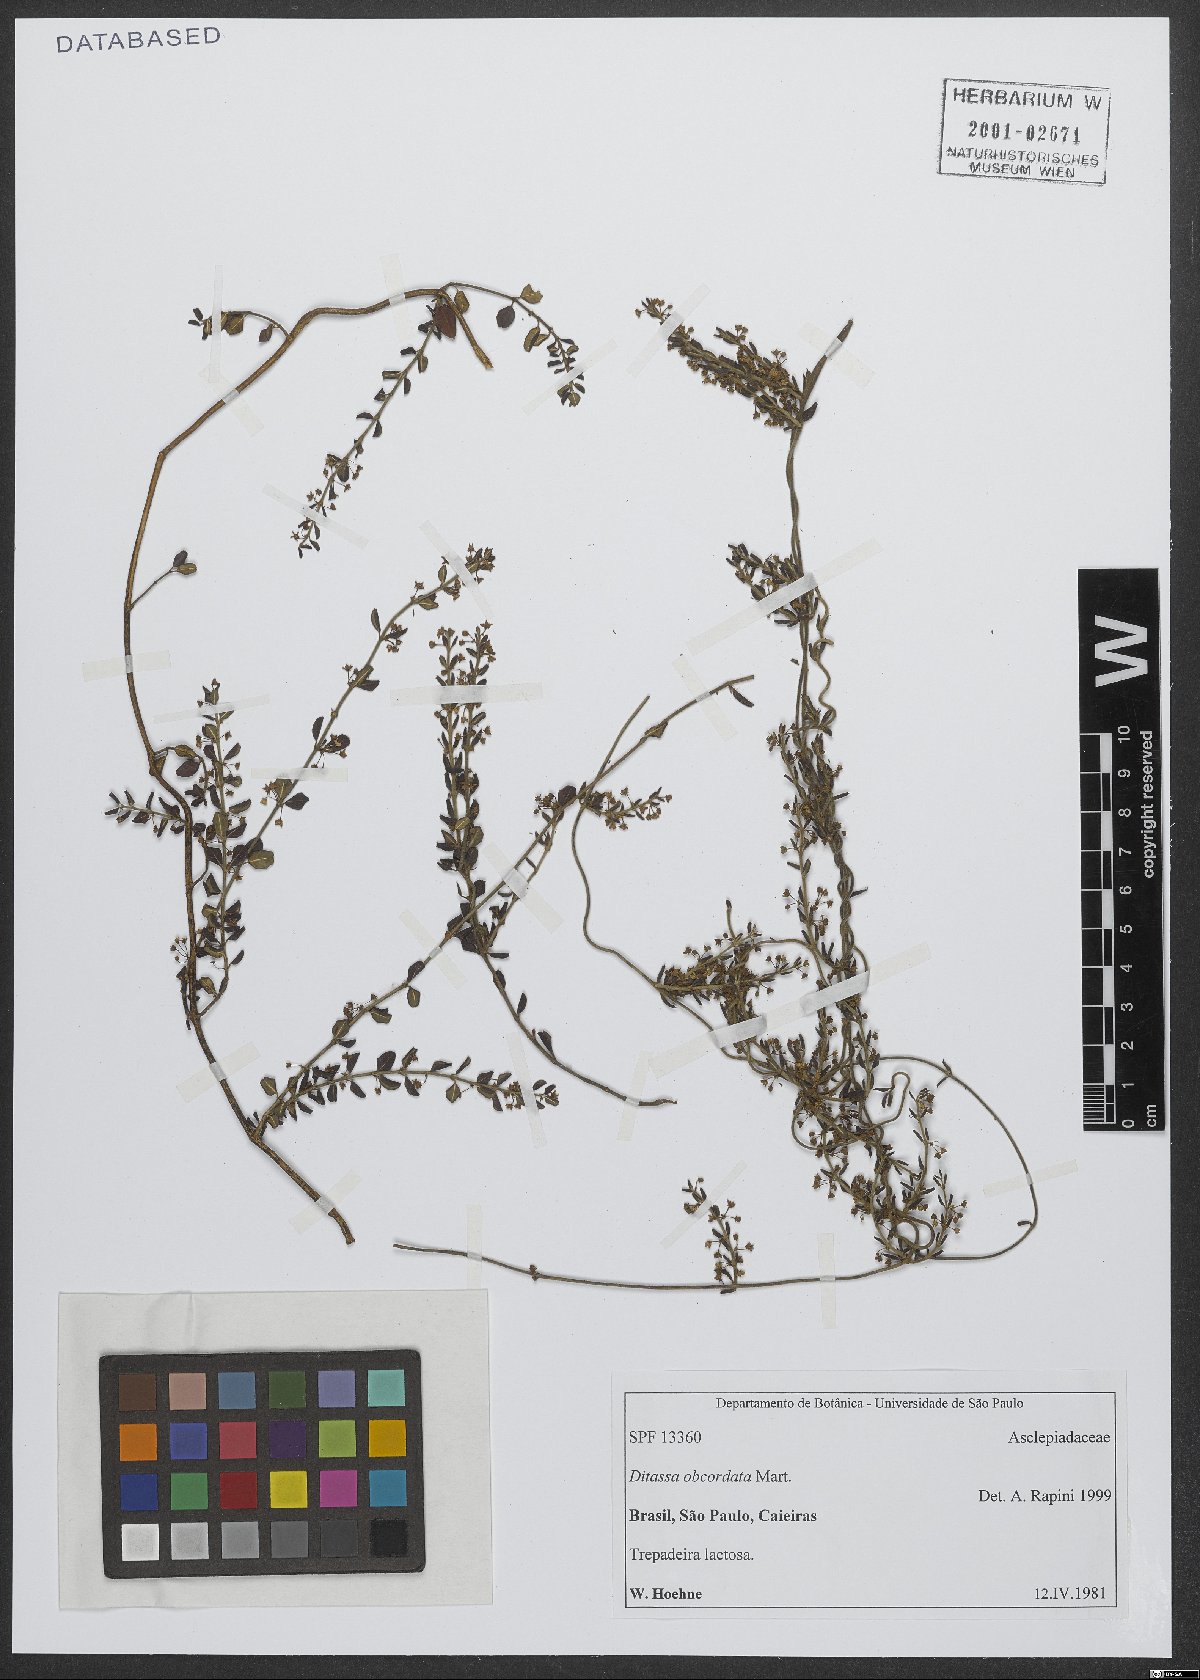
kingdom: Plantae
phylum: Tracheophyta
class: Magnoliopsida
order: Gentianales
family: Apocynaceae
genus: Ditassa
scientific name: Ditassa obcordata
